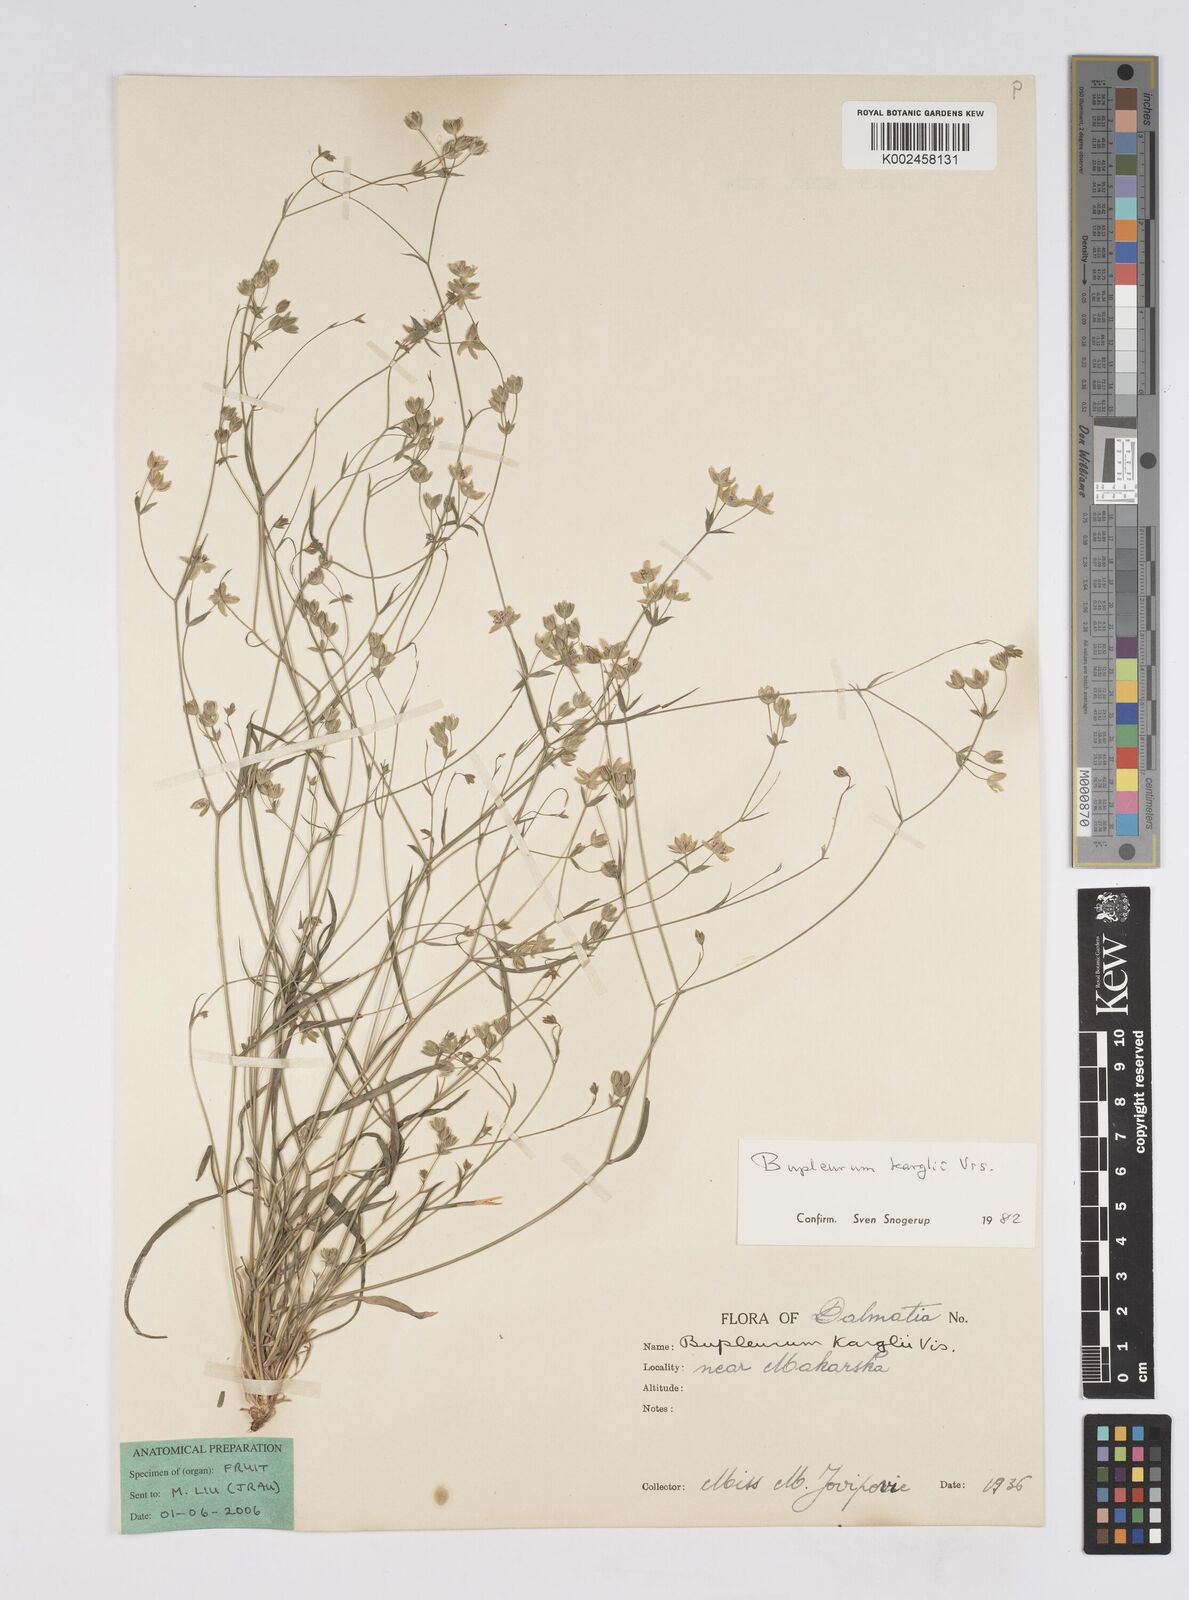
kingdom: Plantae
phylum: Tracheophyta
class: Magnoliopsida
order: Apiales
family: Apiaceae
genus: Bupleurum
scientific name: Bupleurum karglii
